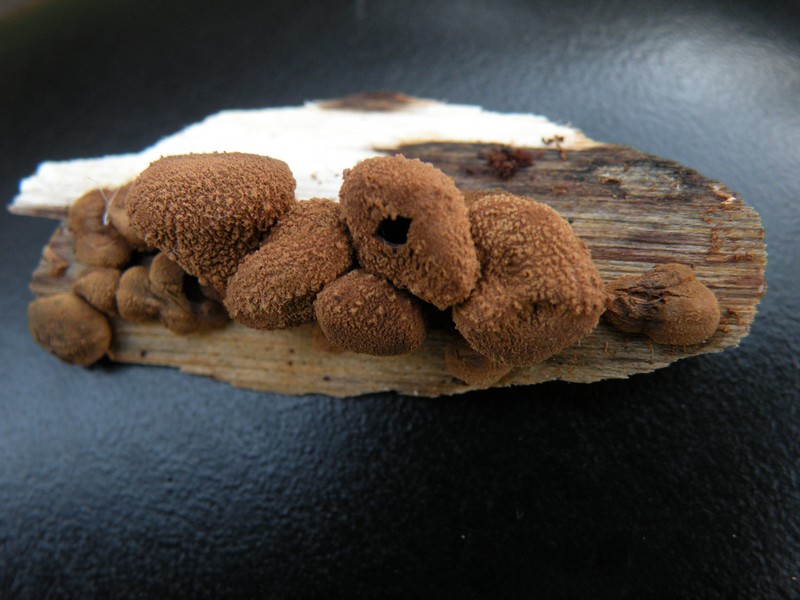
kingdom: Fungi
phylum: Ascomycota
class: Leotiomycetes
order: Helotiales
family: Cenangiaceae
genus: Encoelia
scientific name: Encoelia furfuracea
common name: hassel-læderskive
